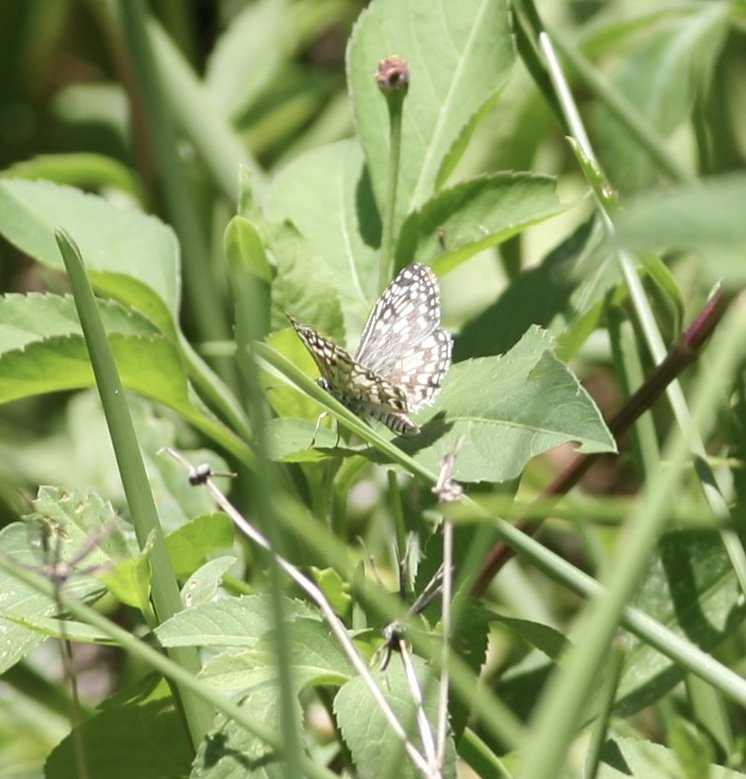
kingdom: Animalia
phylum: Arthropoda
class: Insecta
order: Lepidoptera
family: Hesperiidae
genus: Pyrgus
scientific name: Pyrgus oileus
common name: Tropical Checkered-Skipper
